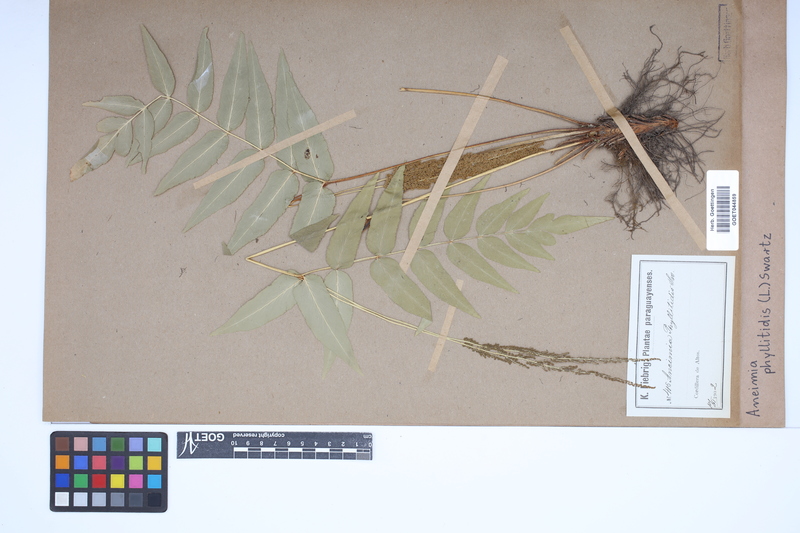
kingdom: Plantae
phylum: Tracheophyta
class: Polypodiopsida
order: Schizaeales
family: Anemiaceae
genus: Anemia
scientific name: Anemia phyllitidis
